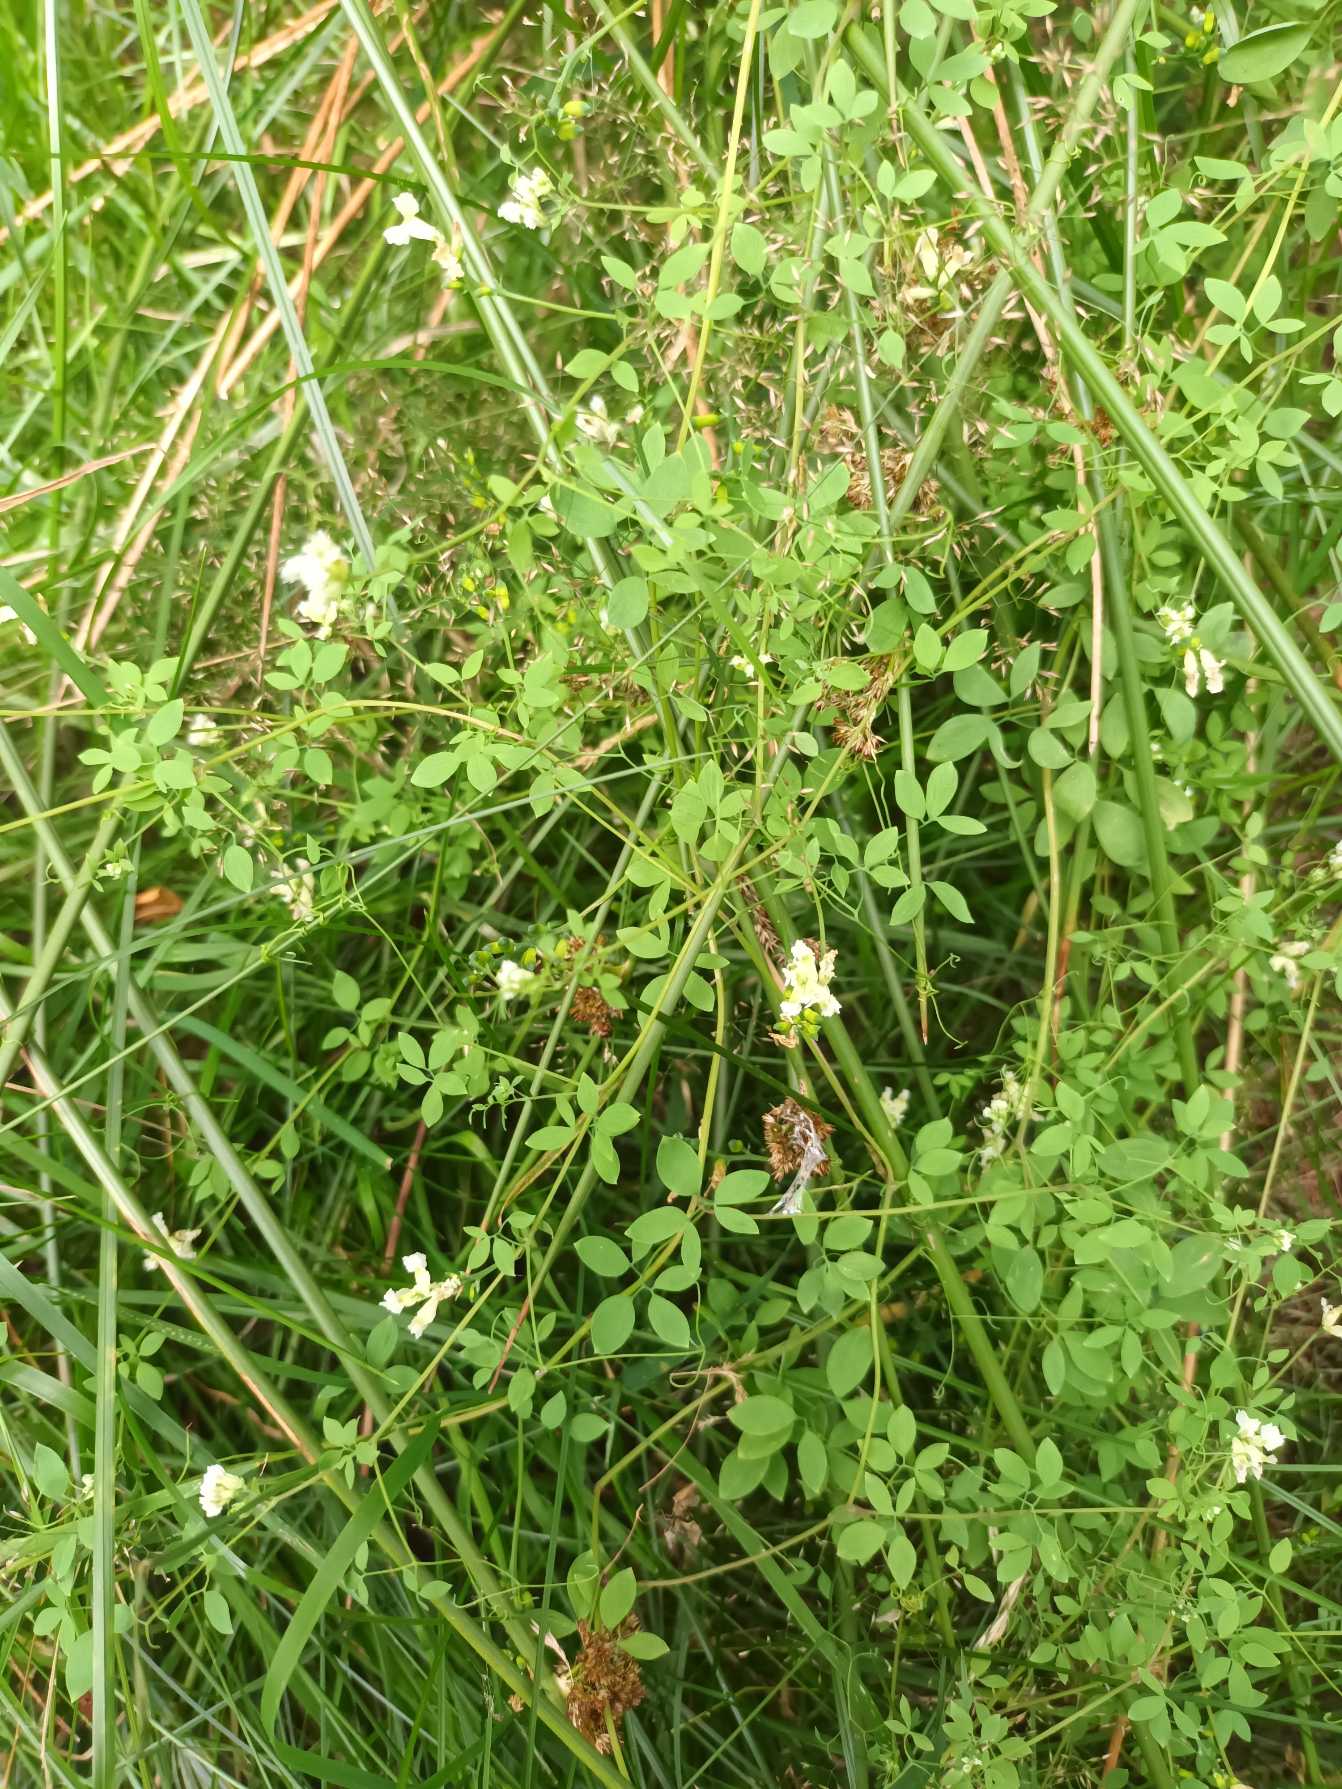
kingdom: Plantae
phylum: Tracheophyta
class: Magnoliopsida
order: Ranunculales
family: Papaveraceae
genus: Ceratocapnos
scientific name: Ceratocapnos claviculata
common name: Klatrende lærkespore
